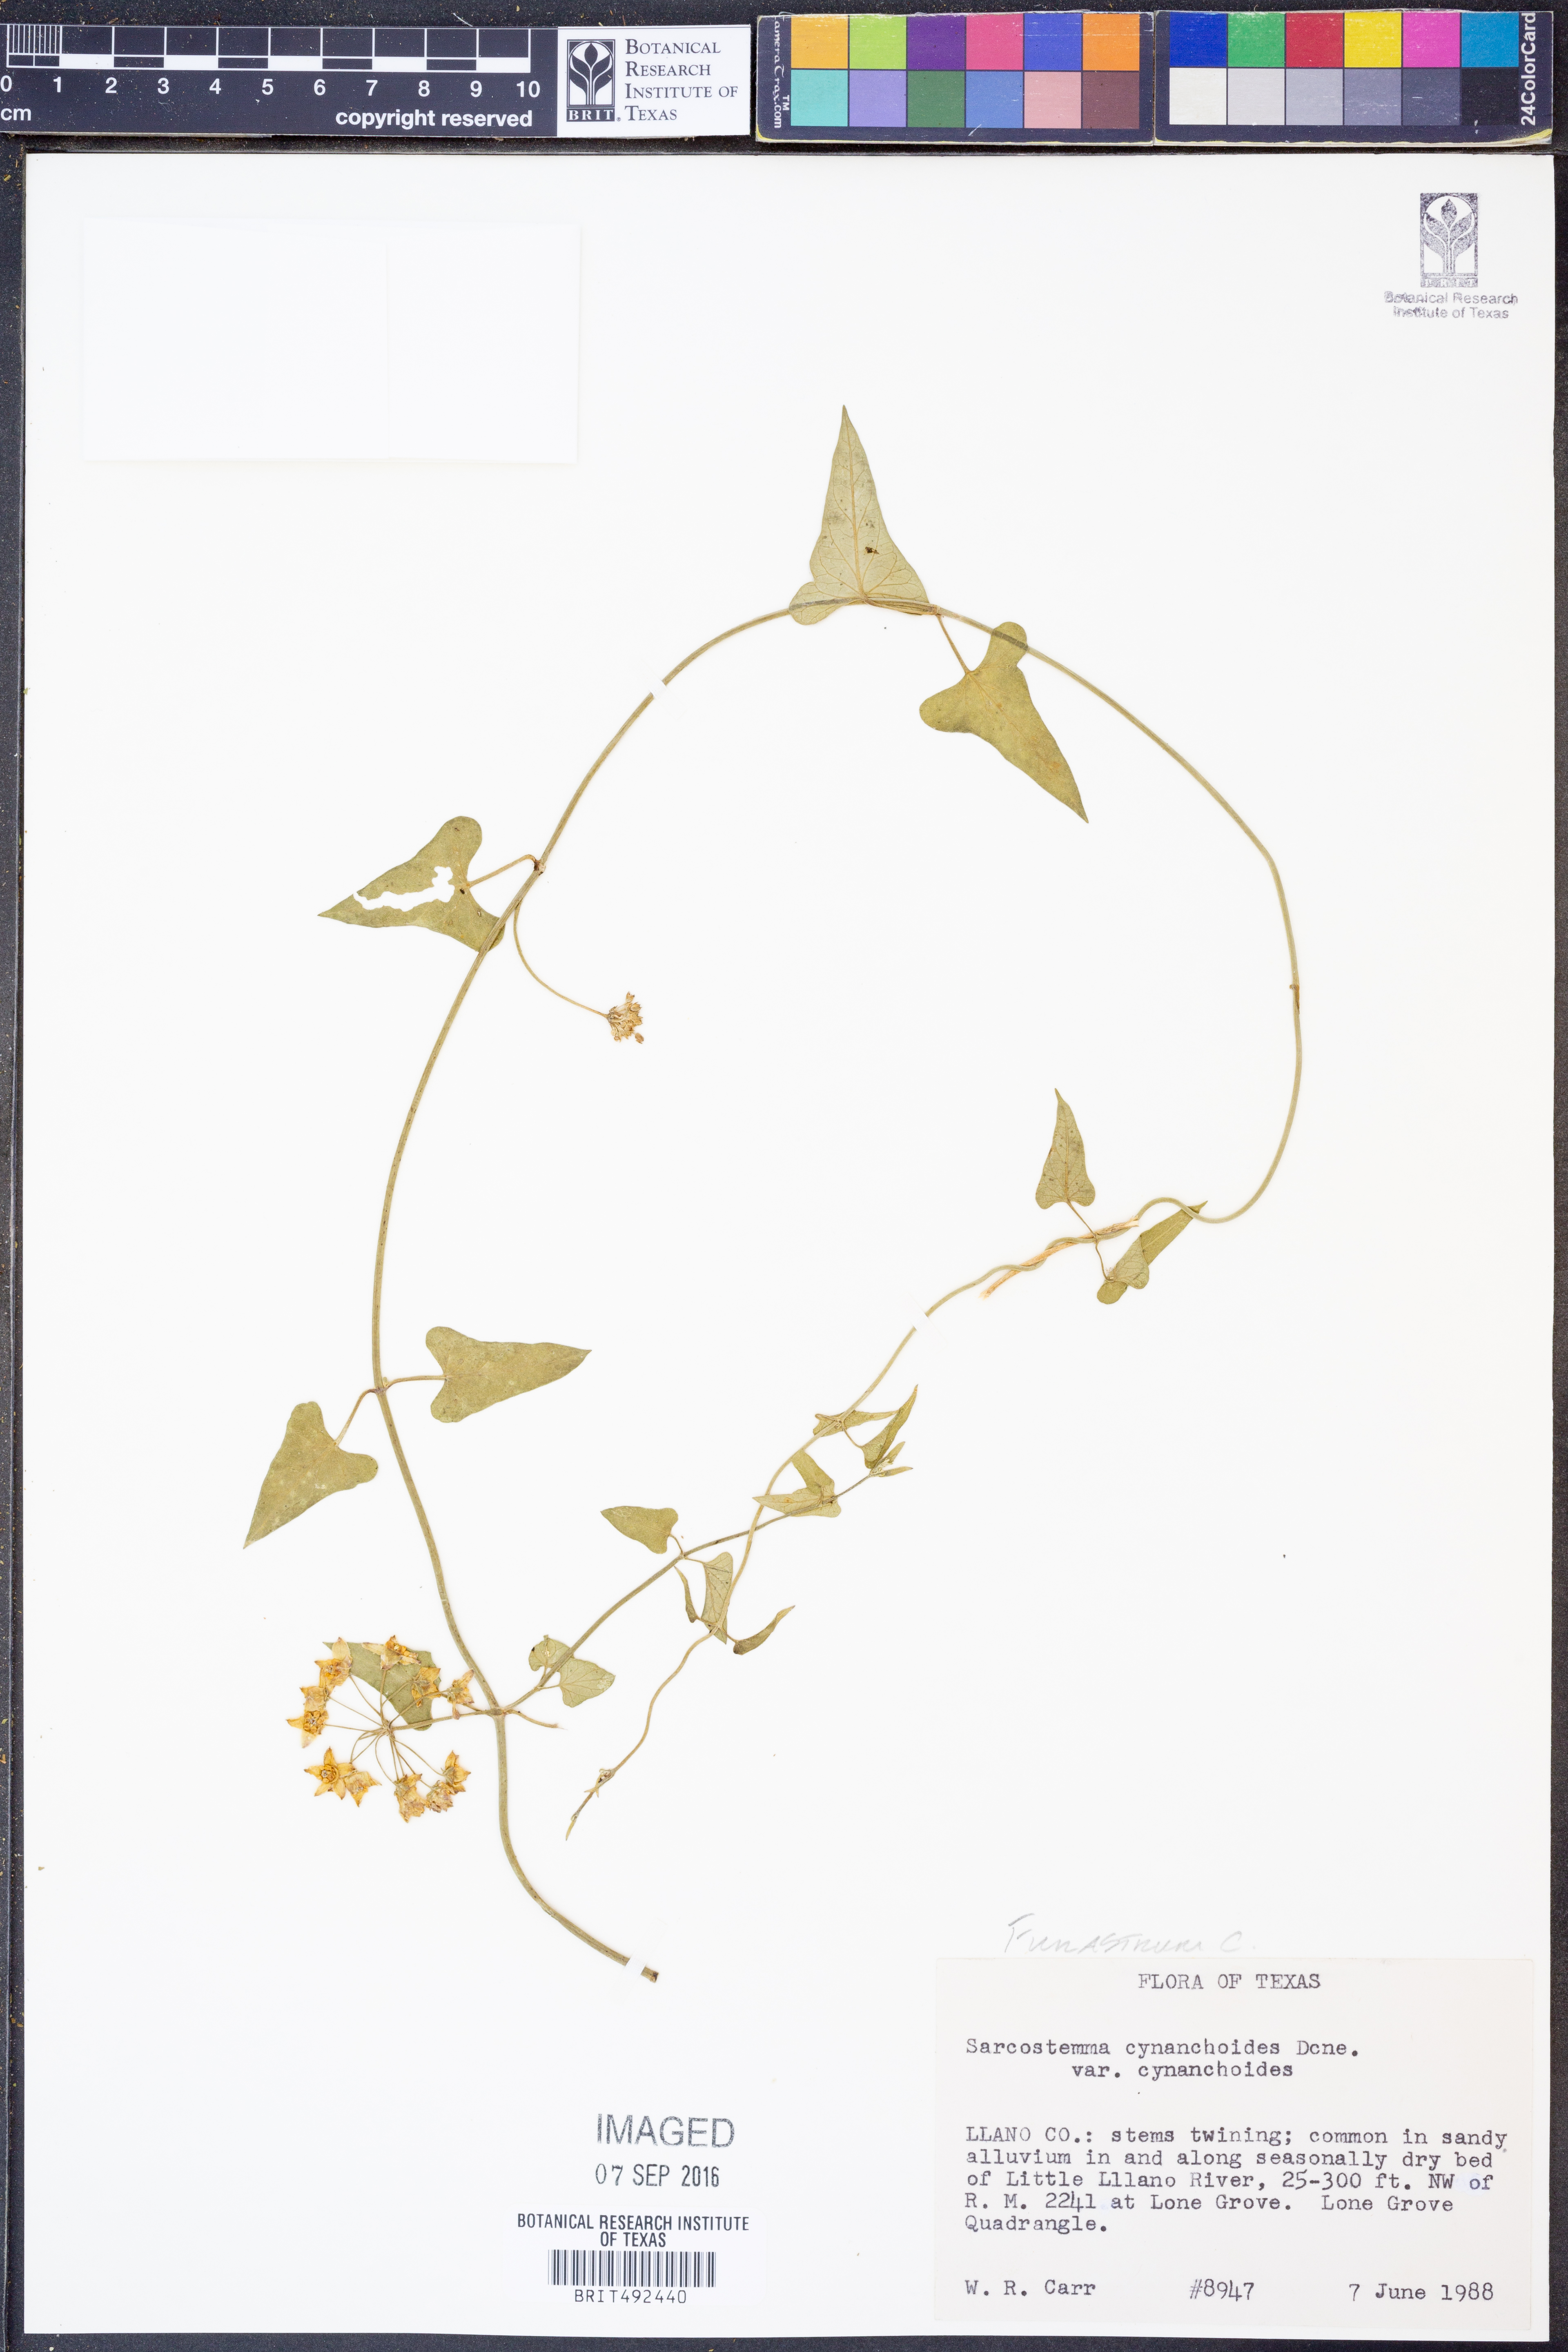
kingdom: Plantae
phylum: Tracheophyta
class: Magnoliopsida
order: Gentianales
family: Apocynaceae
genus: Funastrum
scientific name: Funastrum cynanchoides
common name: Climbing-milkweed
